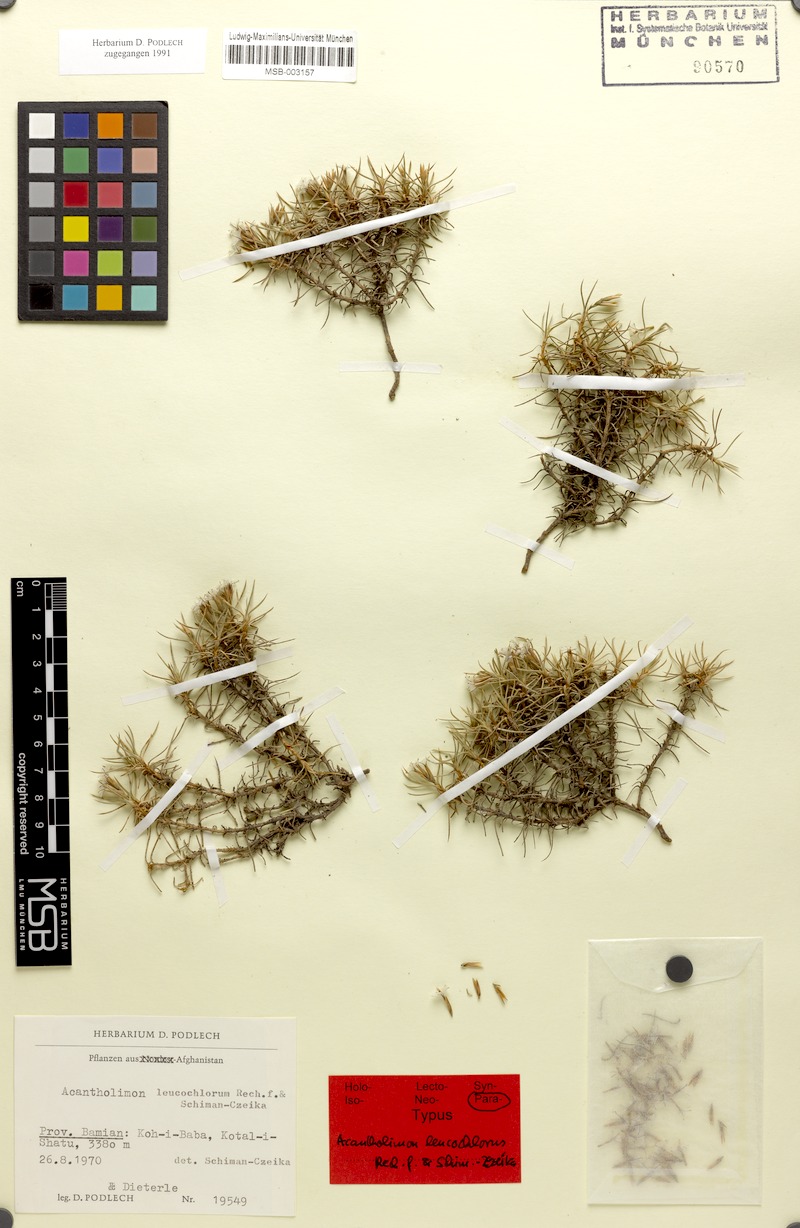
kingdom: Plantae
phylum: Tracheophyta
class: Magnoliopsida
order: Caryophyllales
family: Plumbaginaceae
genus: Acantholimon
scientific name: Acantholimon leucochlorum
